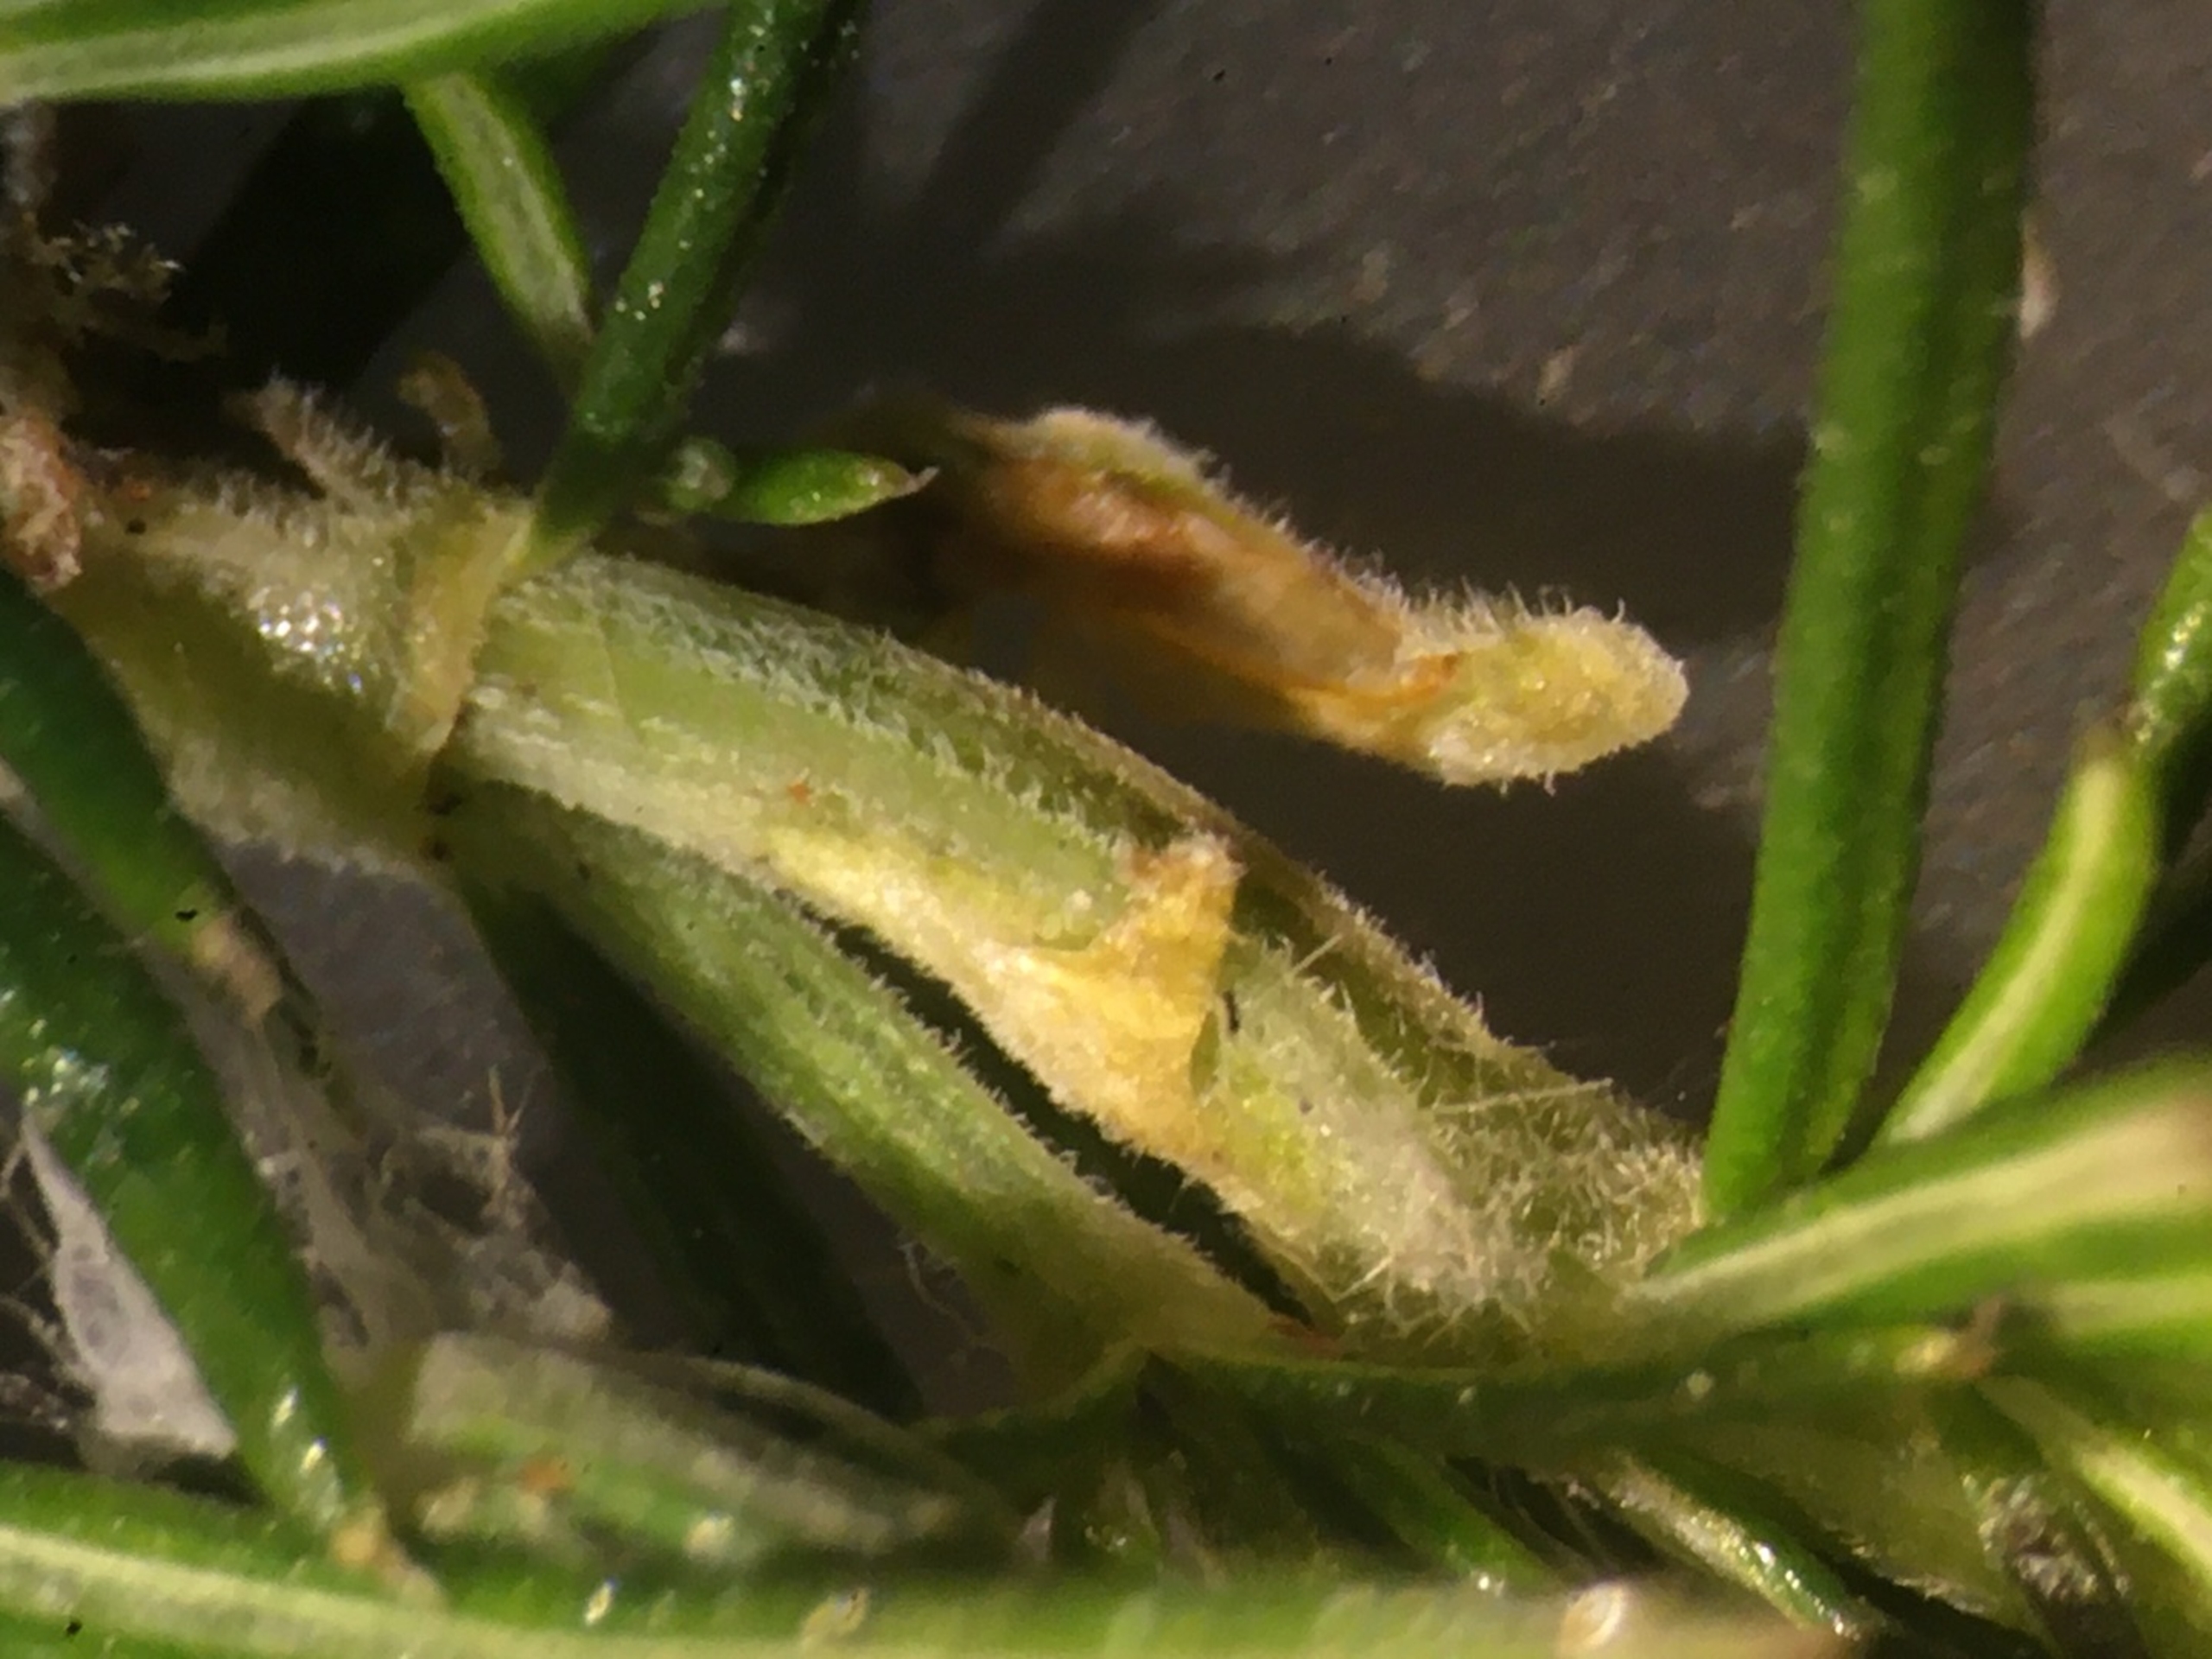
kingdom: Animalia
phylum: Arthropoda
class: Insecta
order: Diptera
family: Cecidomyiidae
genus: Geocrypta
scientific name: Geocrypta rostriformis
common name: Ørnenæsegalmyg
